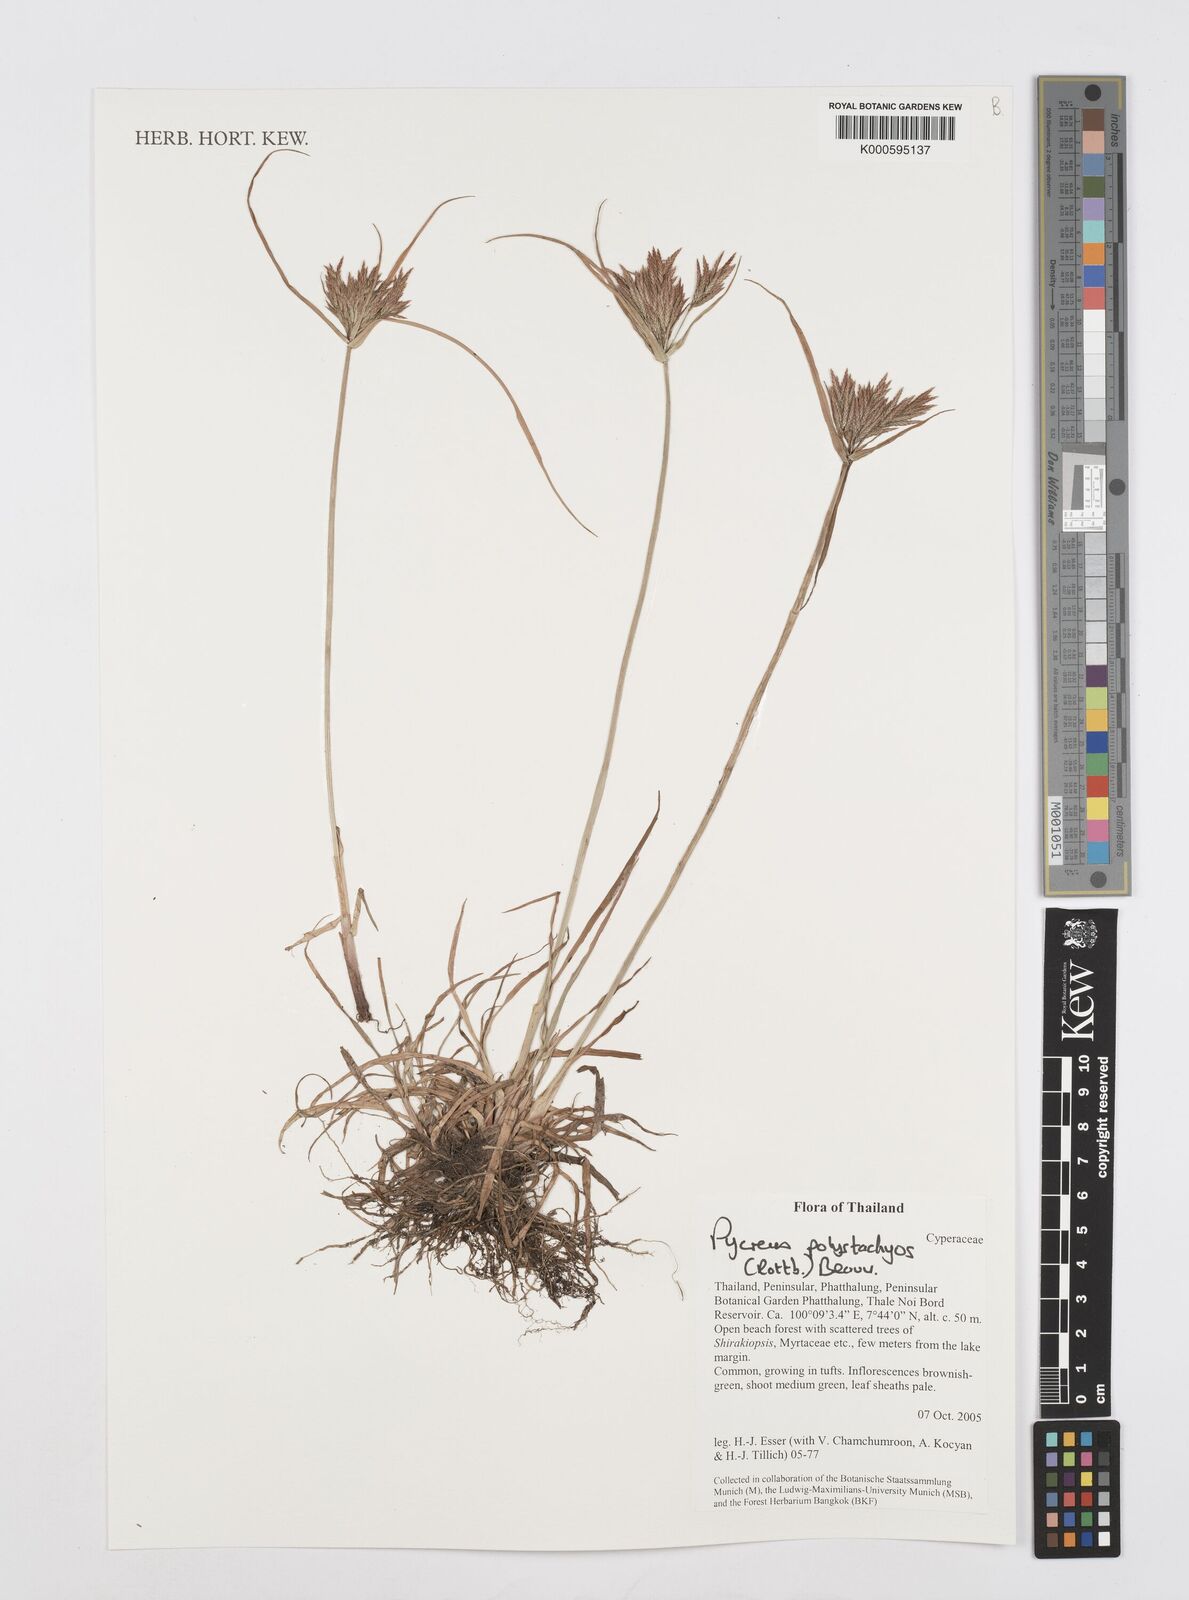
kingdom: Plantae
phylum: Tracheophyta
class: Liliopsida
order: Poales
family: Cyperaceae
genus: Cyperus
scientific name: Cyperus polystachyos
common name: Bunchy flat sedge
